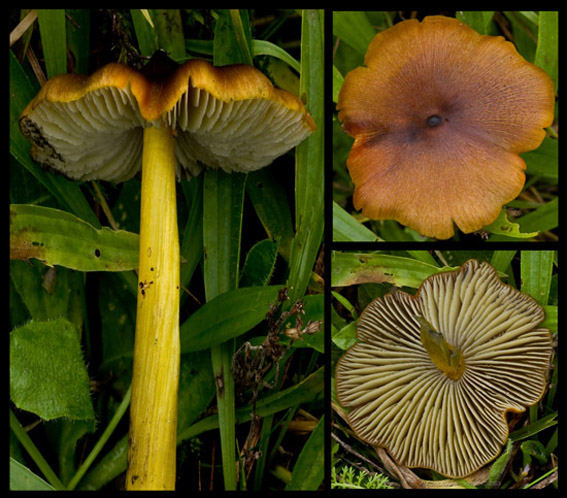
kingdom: Fungi
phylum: Basidiomycota
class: Agaricomycetes
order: Agaricales
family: Hygrophoraceae
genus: Hygrocybe
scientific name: Hygrocybe conica
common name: kegle-vokshat
